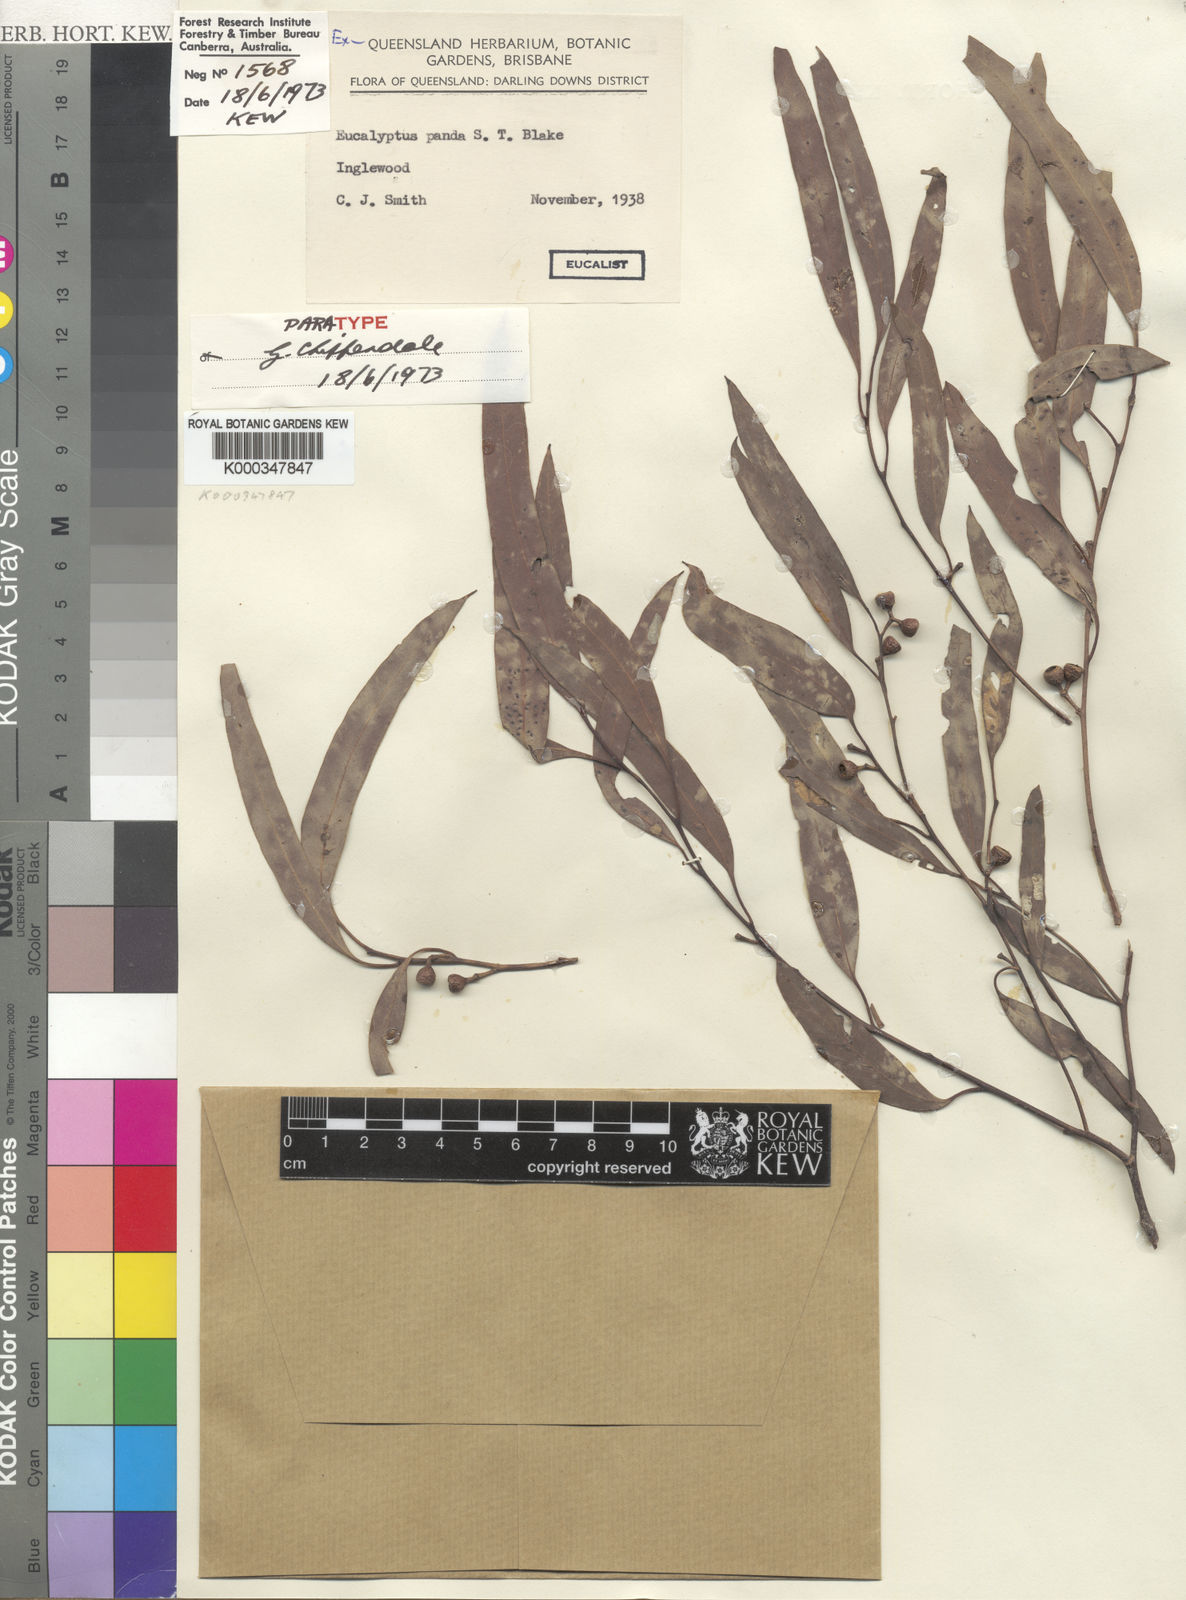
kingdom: Plantae
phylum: Tracheophyta
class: Magnoliopsida
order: Myrtales
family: Myrtaceae
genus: Eucalyptus
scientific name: Eucalyptus panda
